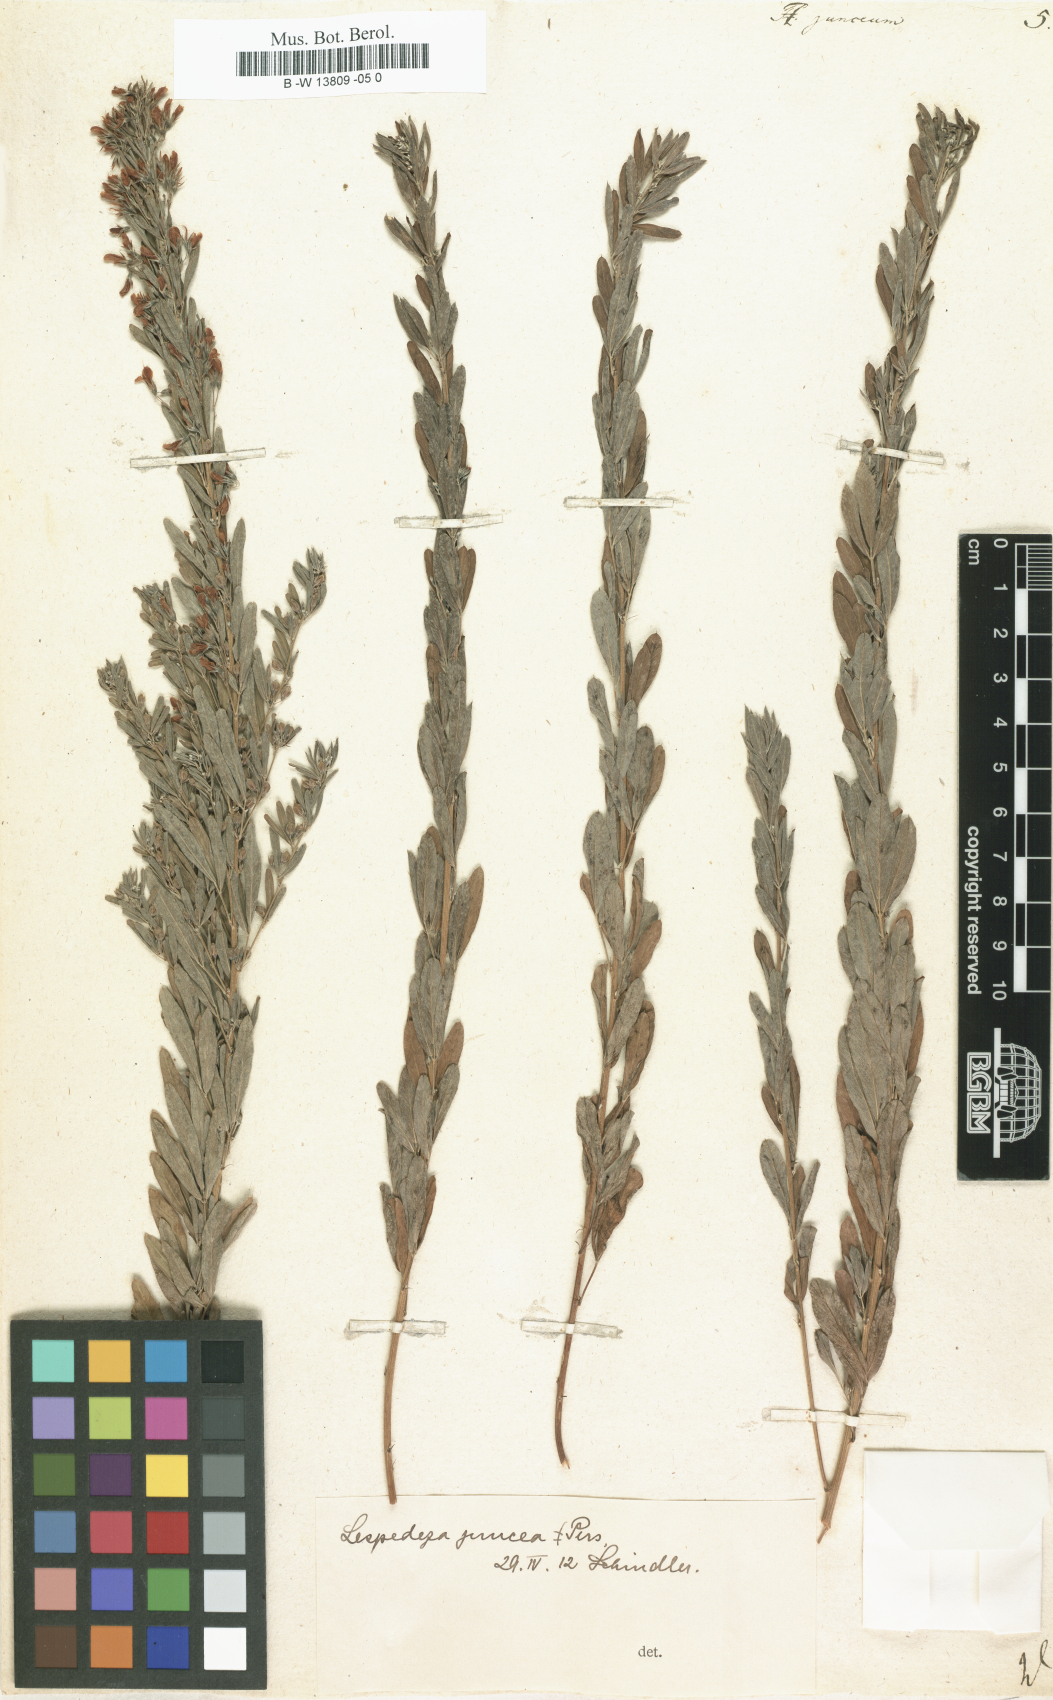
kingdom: Plantae
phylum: Tracheophyta
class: Magnoliopsida
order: Fabales
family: Fabaceae
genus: Lespedeza
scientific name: Lespedeza juncea
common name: Siberian lespedeza
